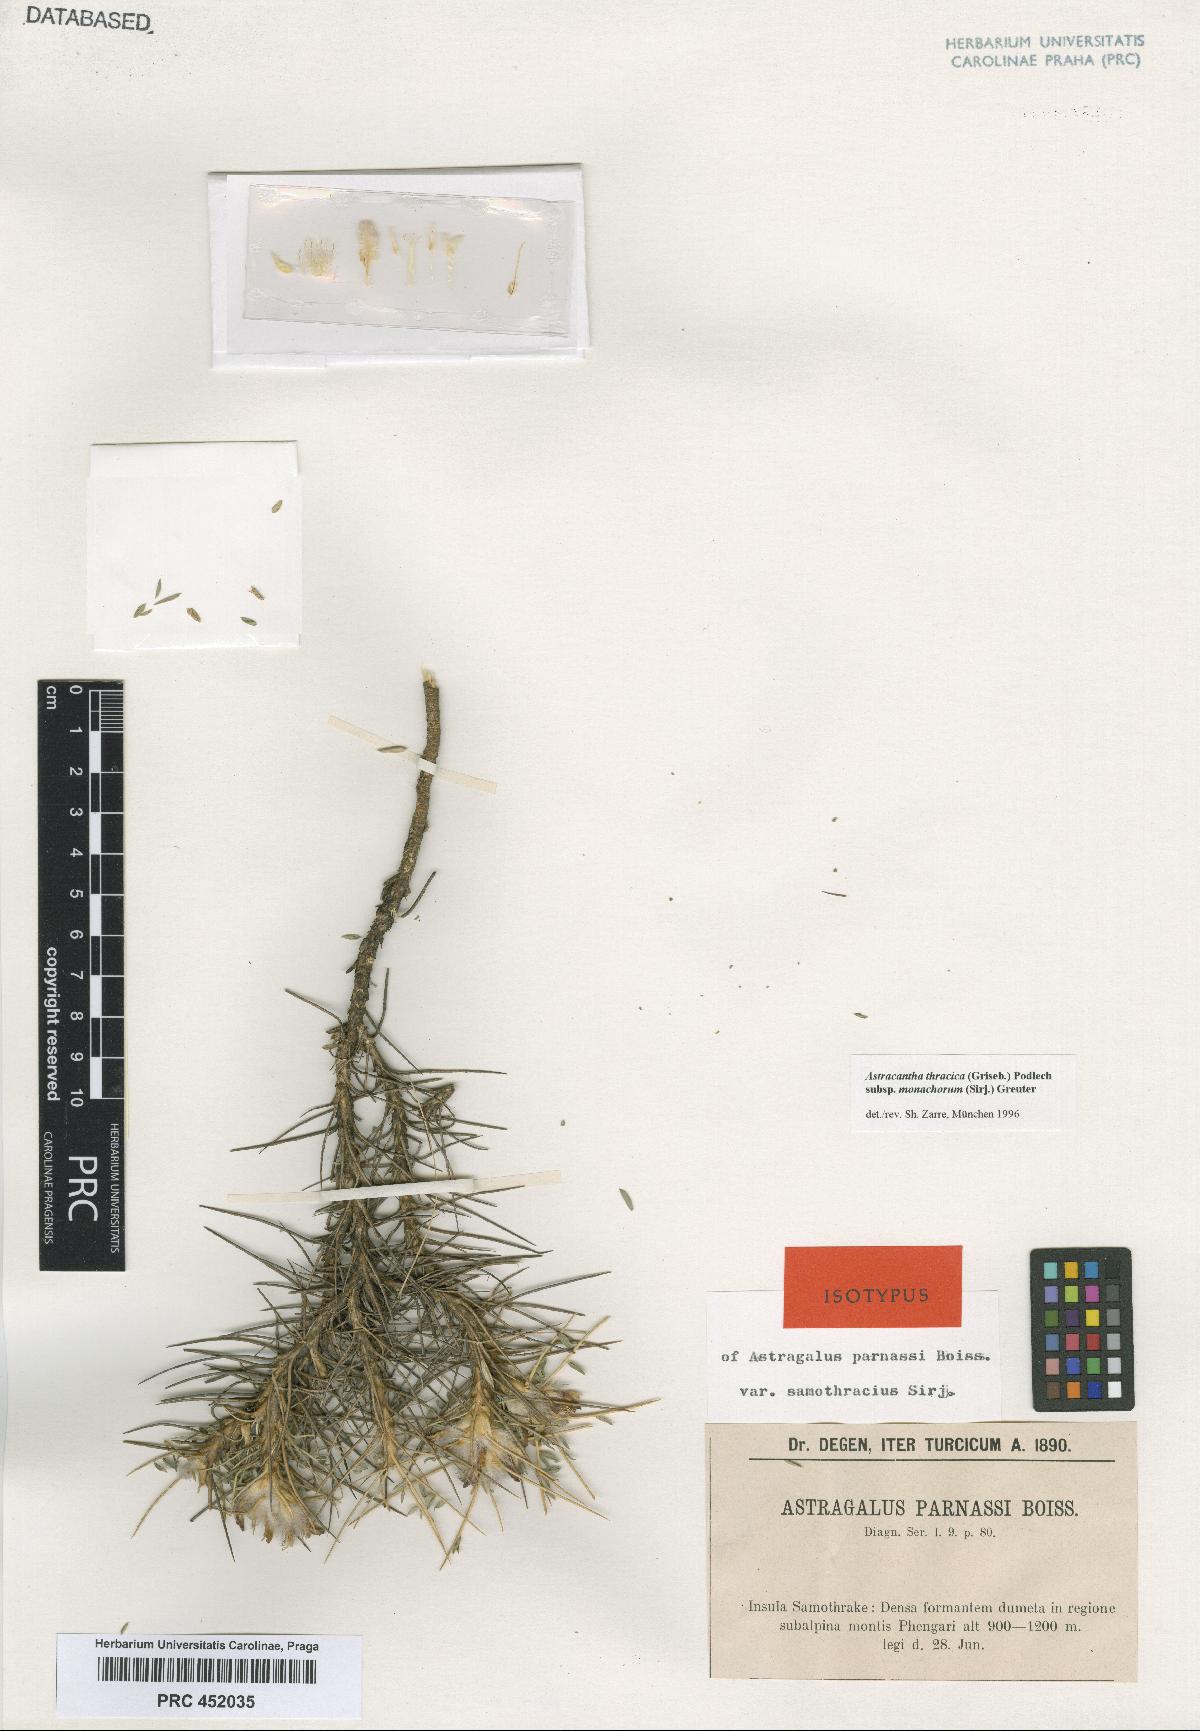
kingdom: Plantae
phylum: Tracheophyta
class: Magnoliopsida
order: Fabales
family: Fabaceae
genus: Astragalus
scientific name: Astragalus parnassi
